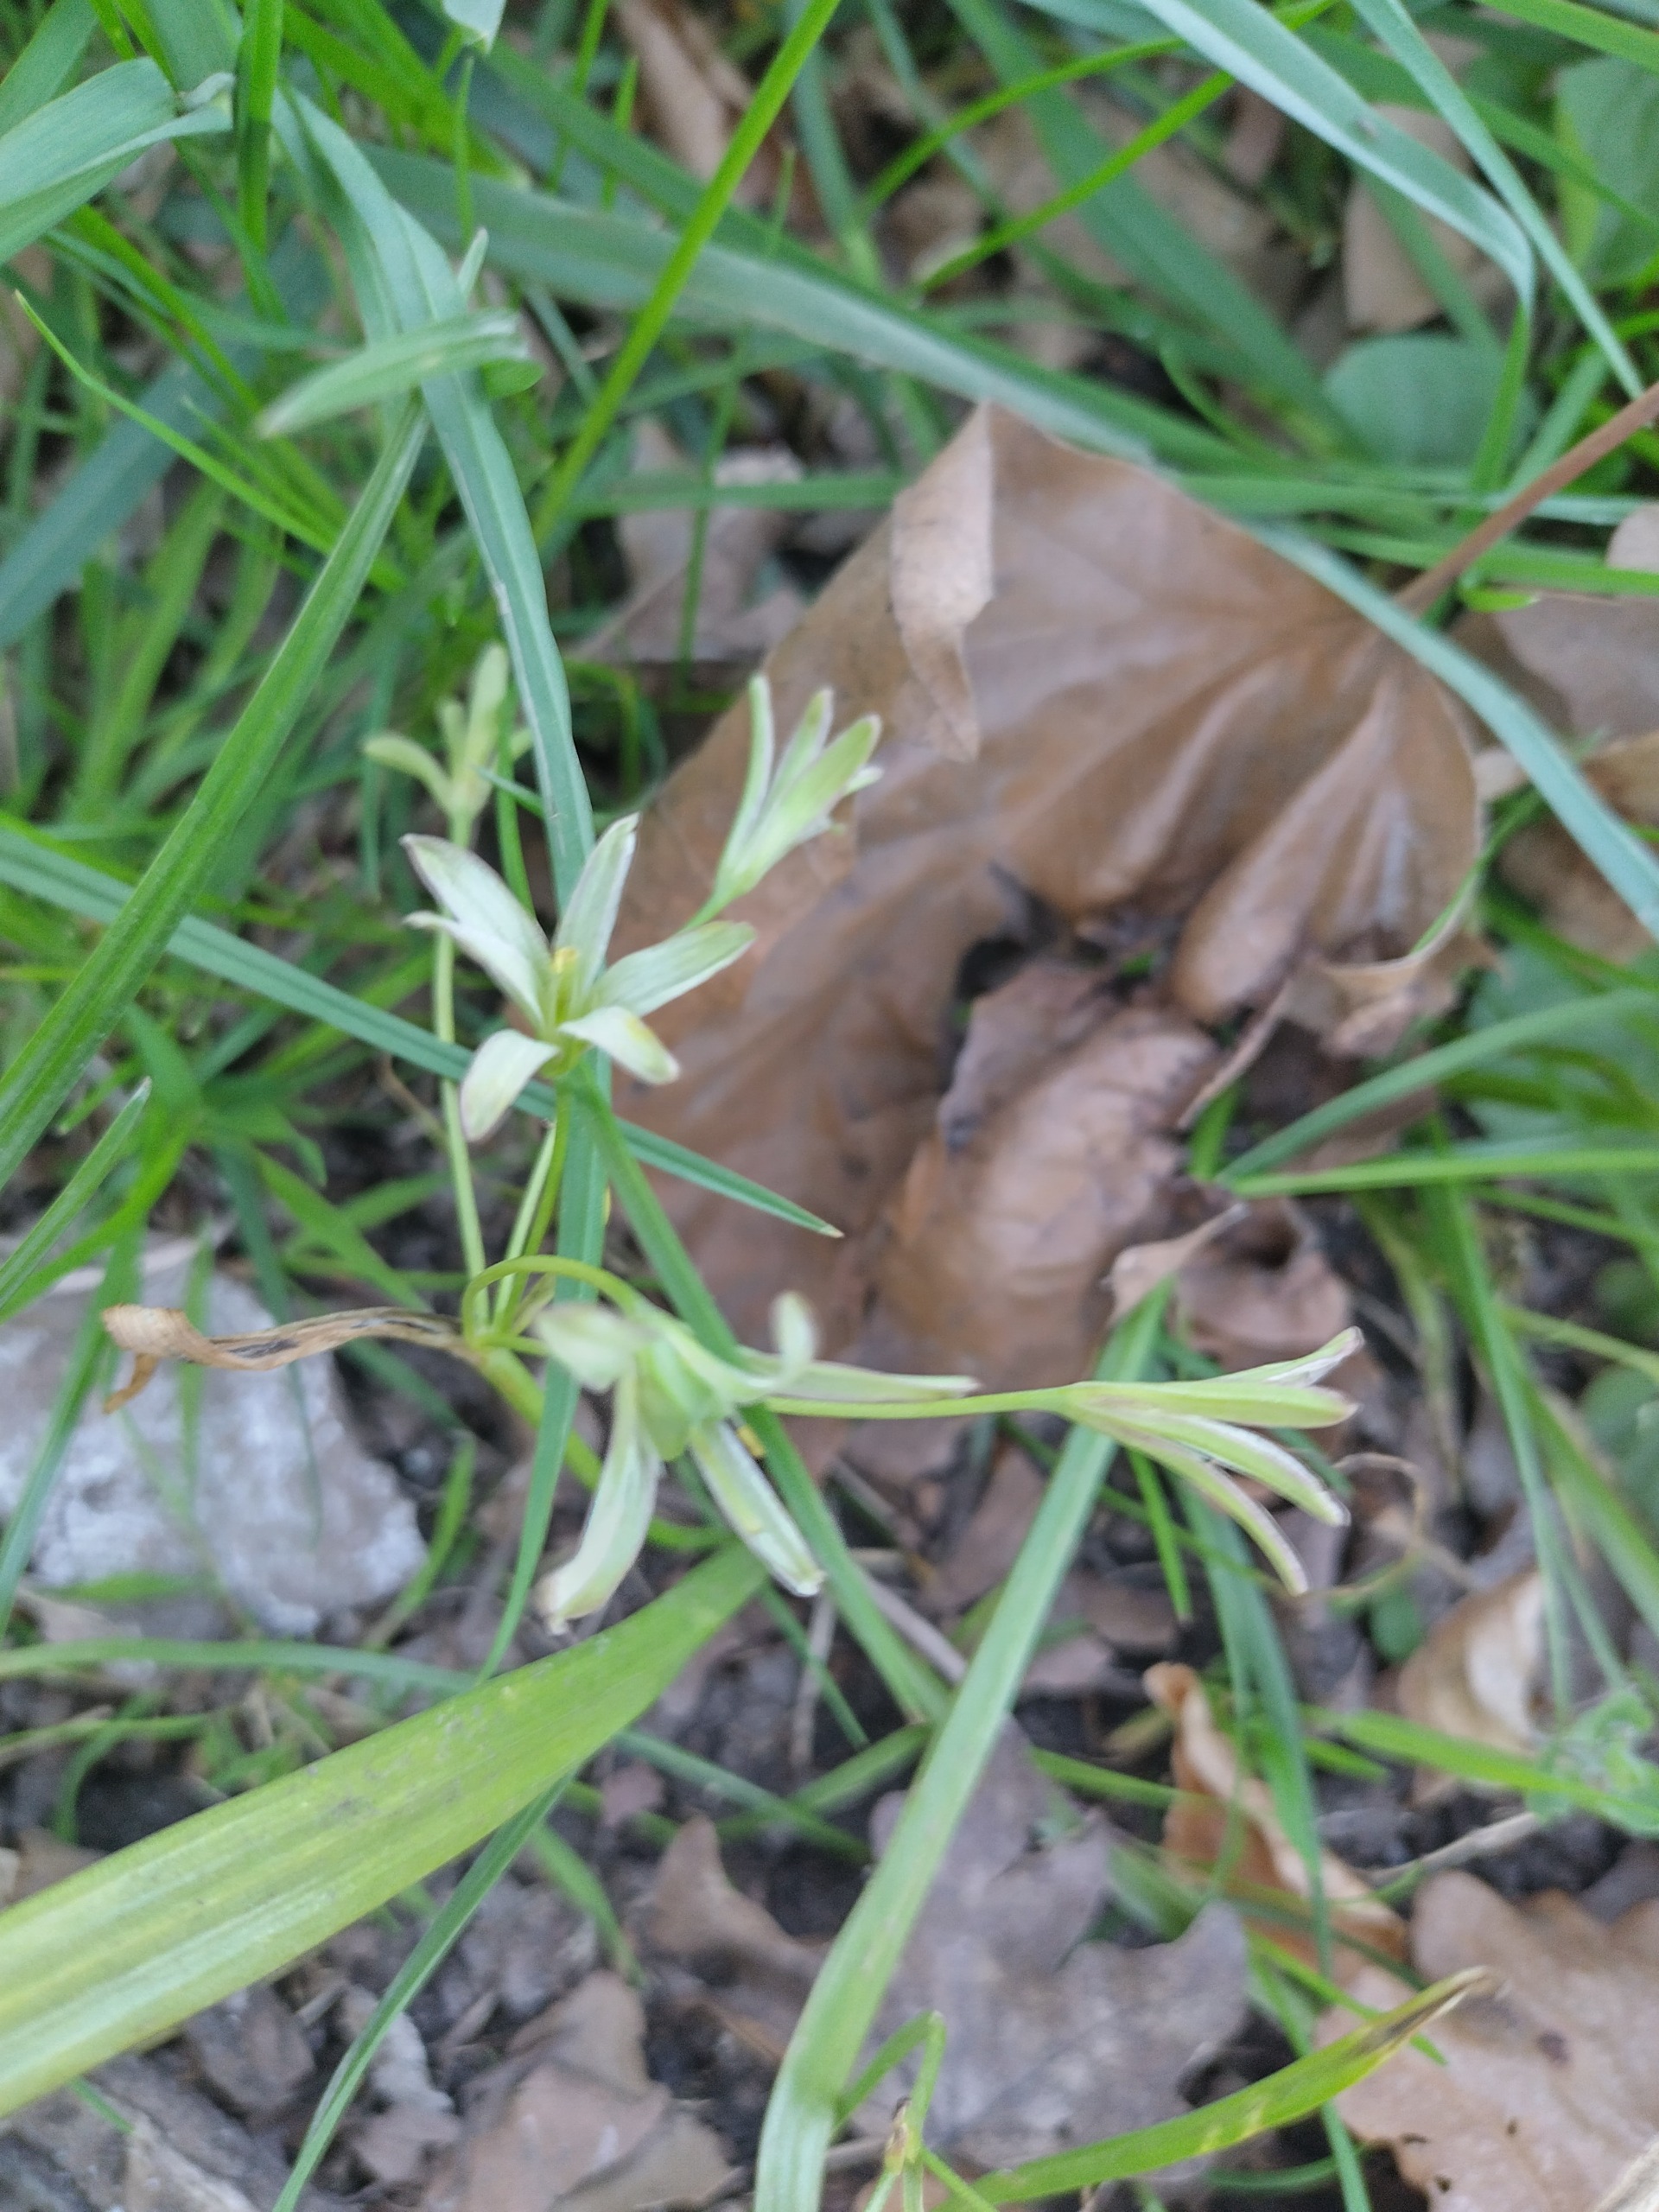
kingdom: Plantae
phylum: Tracheophyta
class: Liliopsida
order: Liliales
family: Liliaceae
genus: Gagea
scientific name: Gagea lutea
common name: Almindelig guldstjerne
